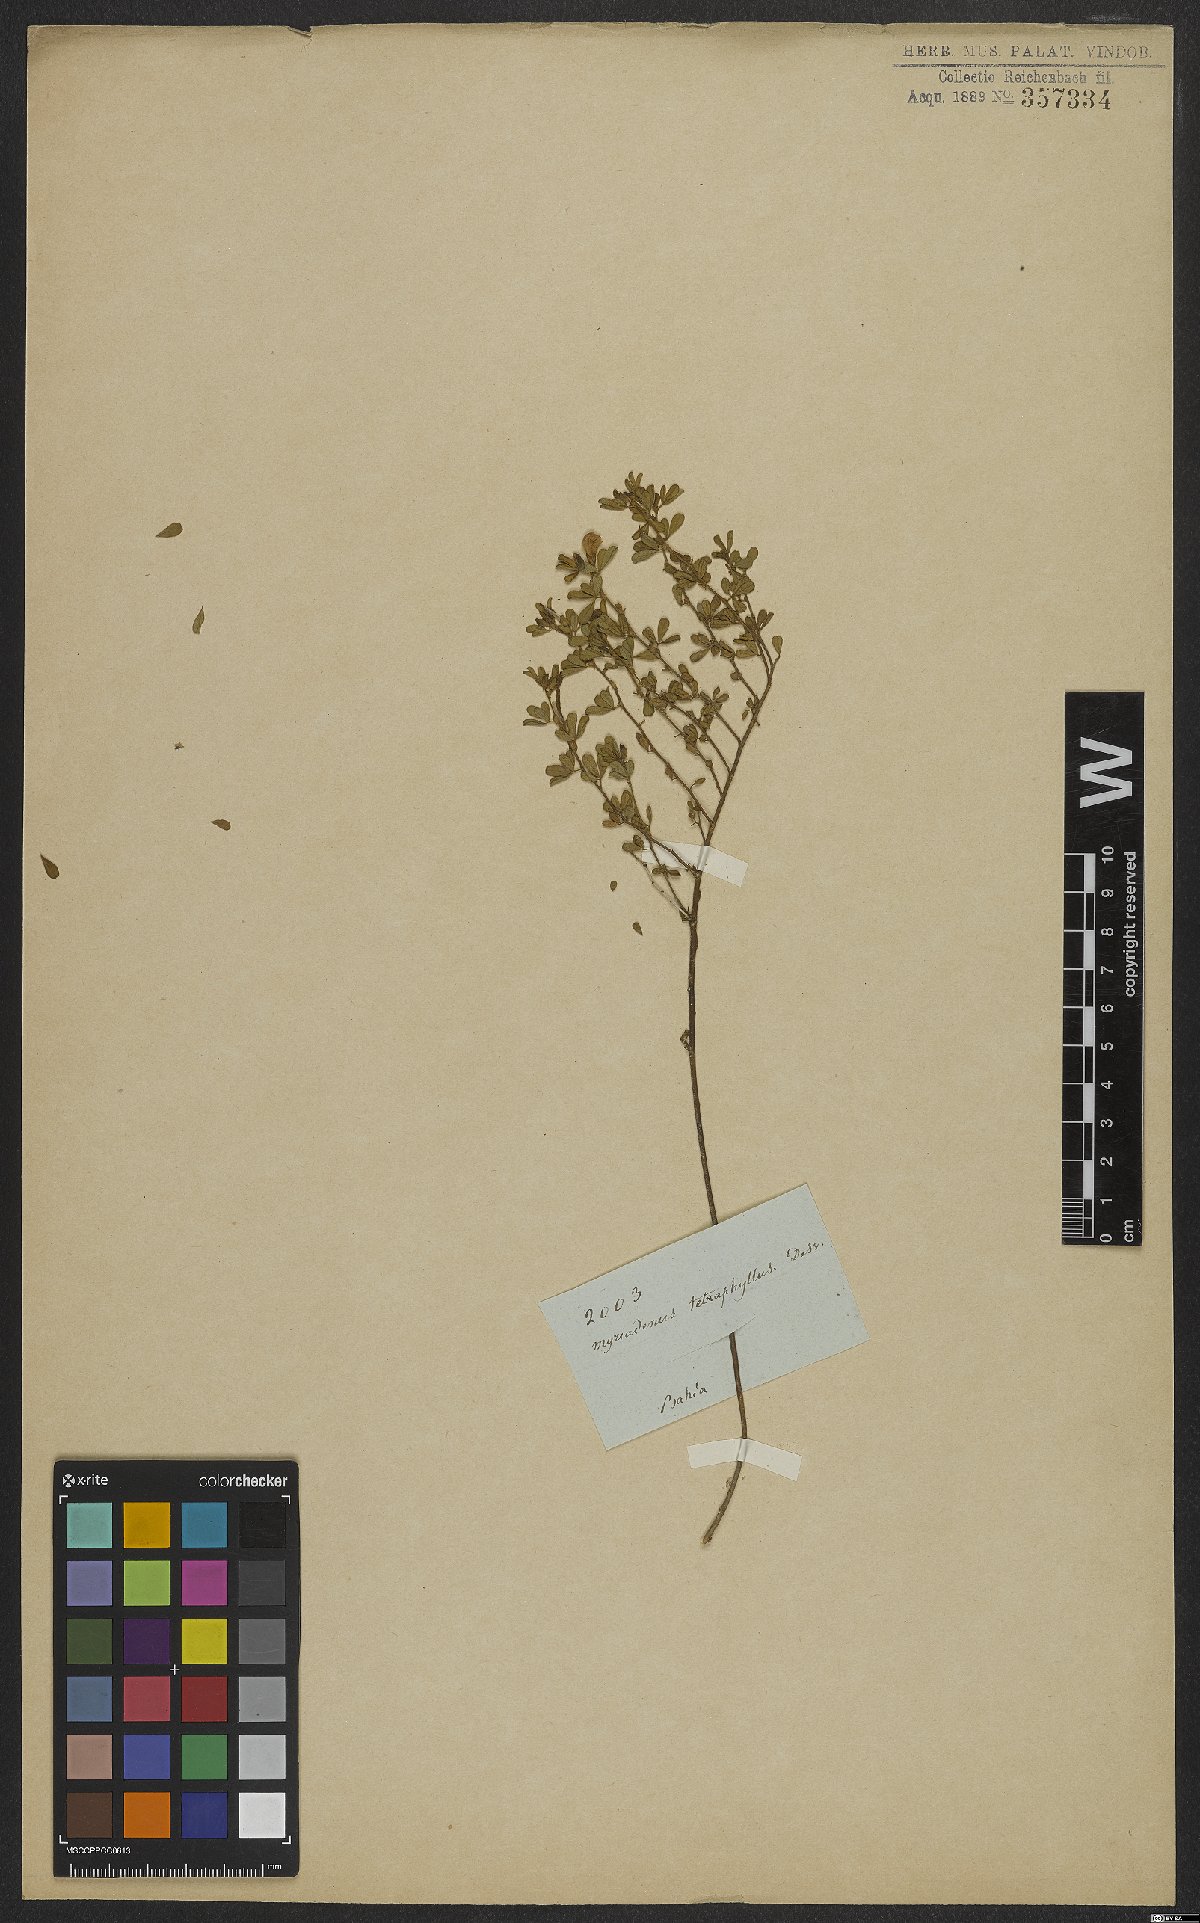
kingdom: Plantae
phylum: Tracheophyta
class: Magnoliopsida
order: Fabales
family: Fabaceae
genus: Zornia
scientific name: Zornia myriadena
